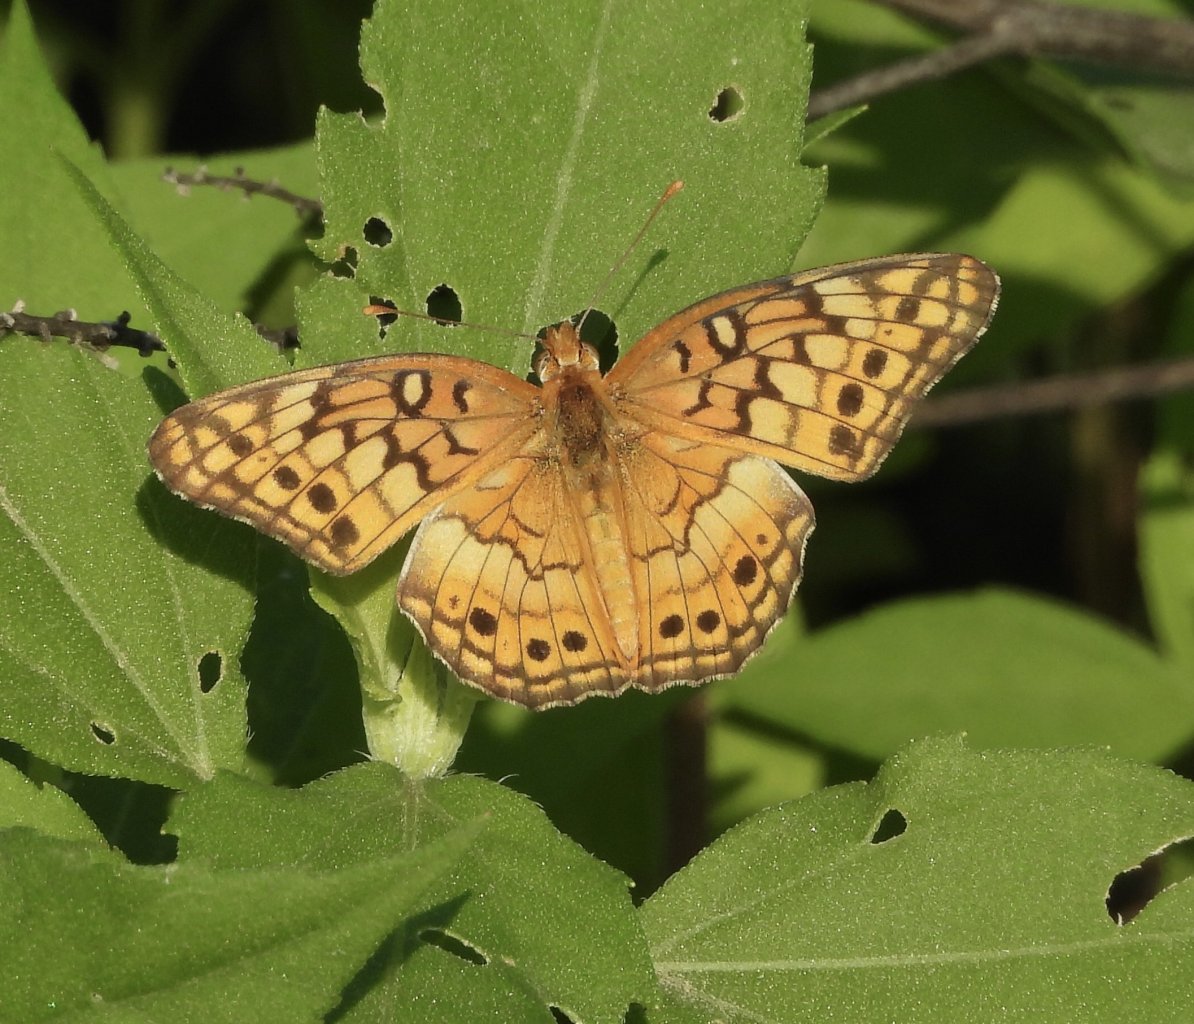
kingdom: Animalia
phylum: Arthropoda
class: Insecta
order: Lepidoptera
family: Nymphalidae
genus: Euptoieta
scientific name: Euptoieta claudia
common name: Variegated Fritillary
